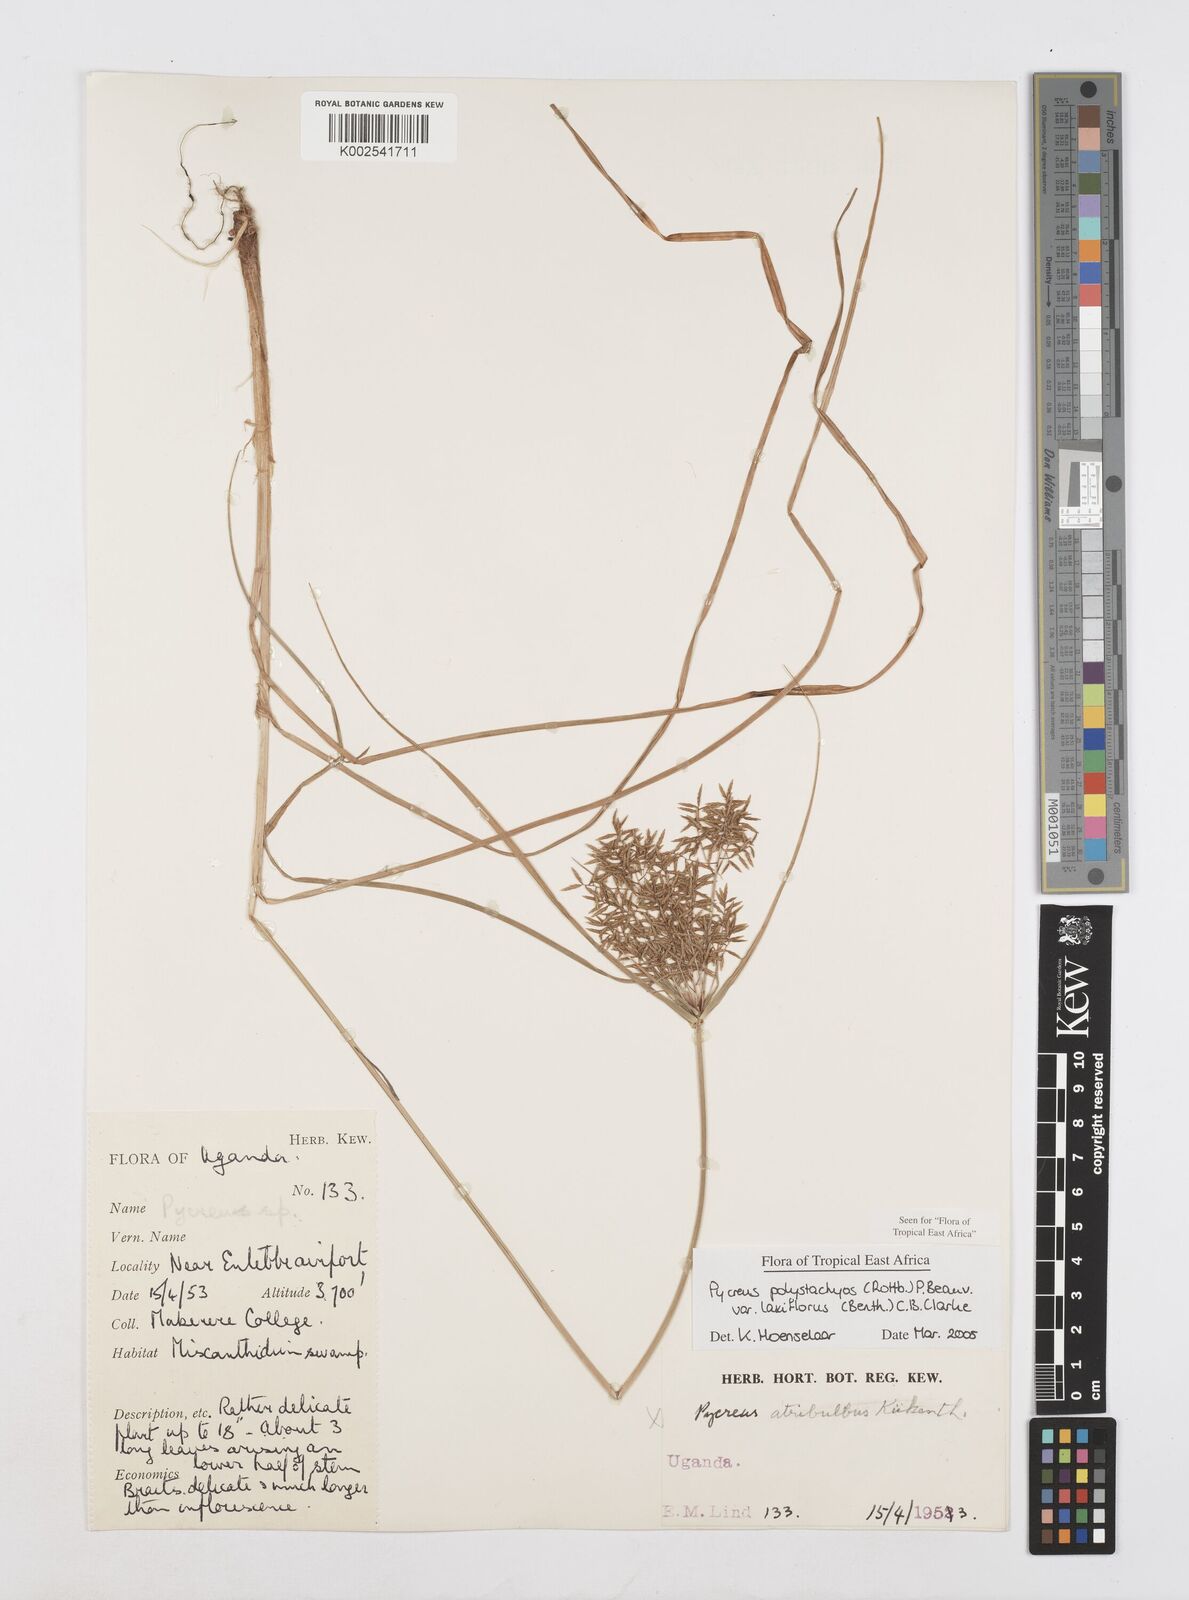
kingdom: Plantae
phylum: Tracheophyta
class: Liliopsida
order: Poales
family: Cyperaceae
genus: Cyperus
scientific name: Cyperus polystachyos
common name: Bunchy flat sedge
